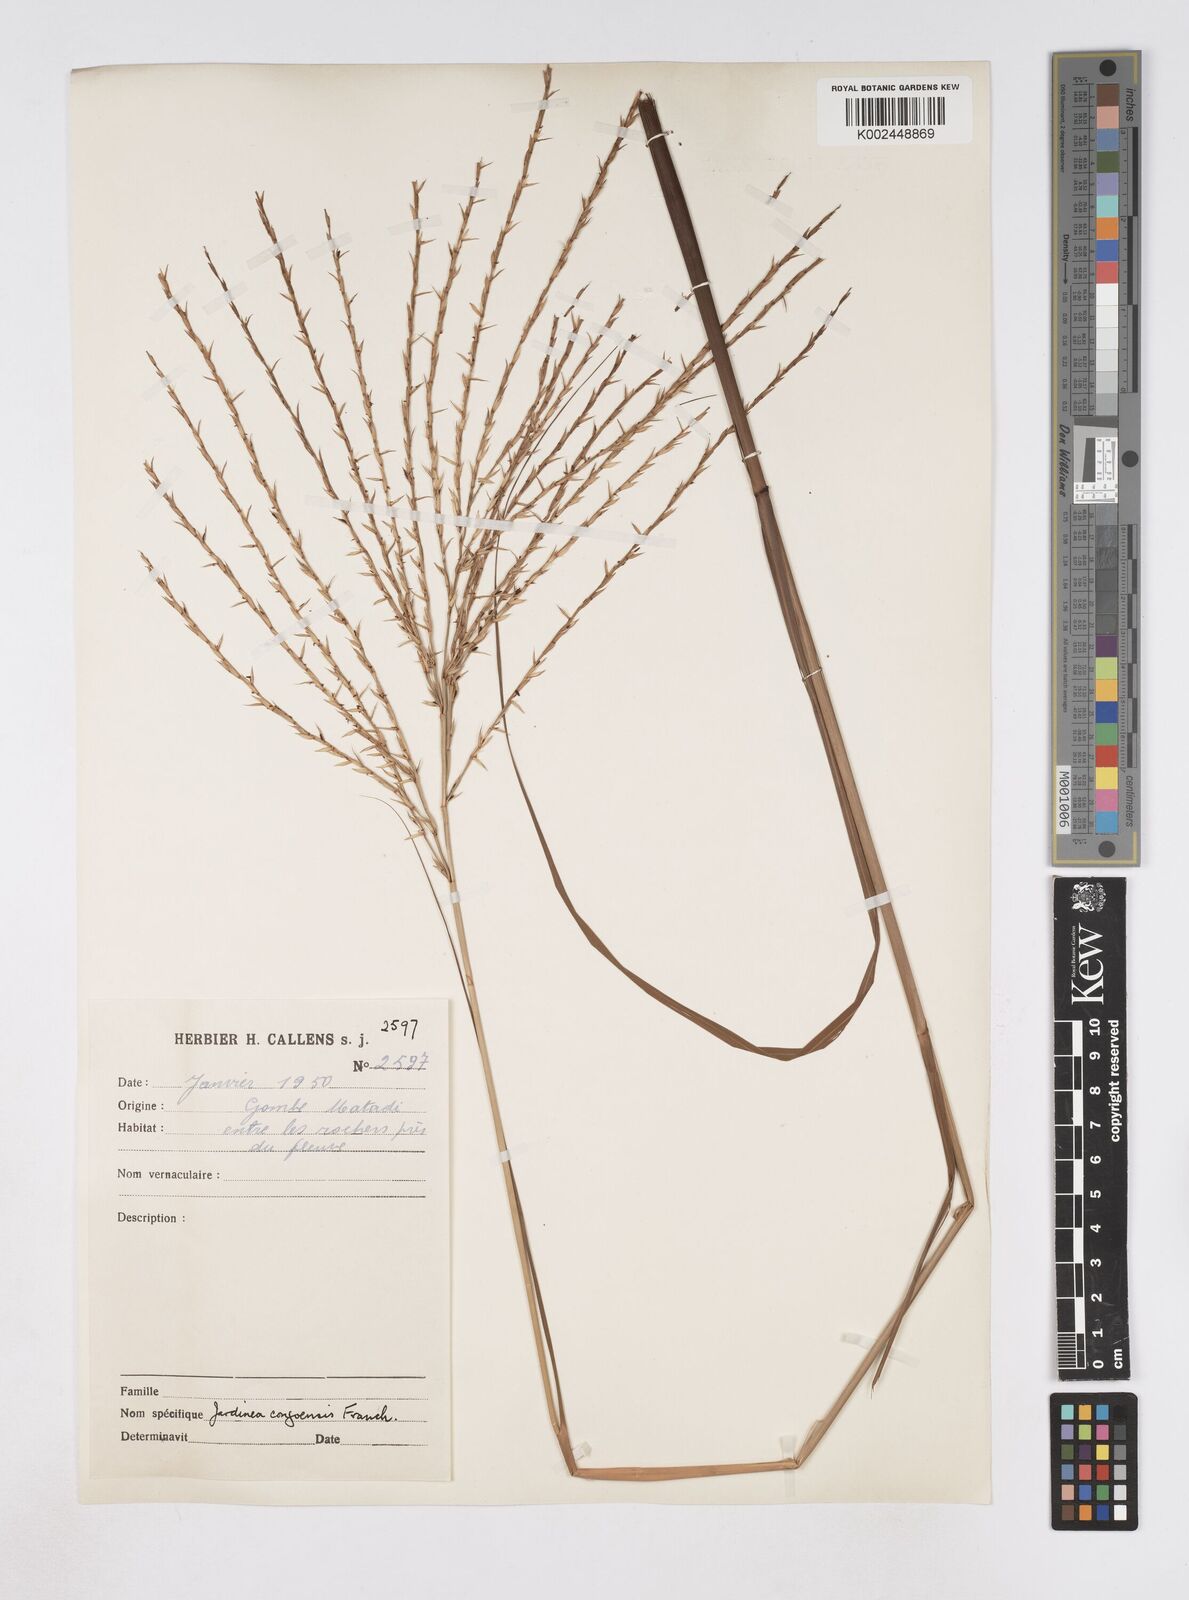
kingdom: Plantae
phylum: Tracheophyta
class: Liliopsida
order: Poales
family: Poaceae
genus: Phacelurus
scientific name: Phacelurus gabonensis
